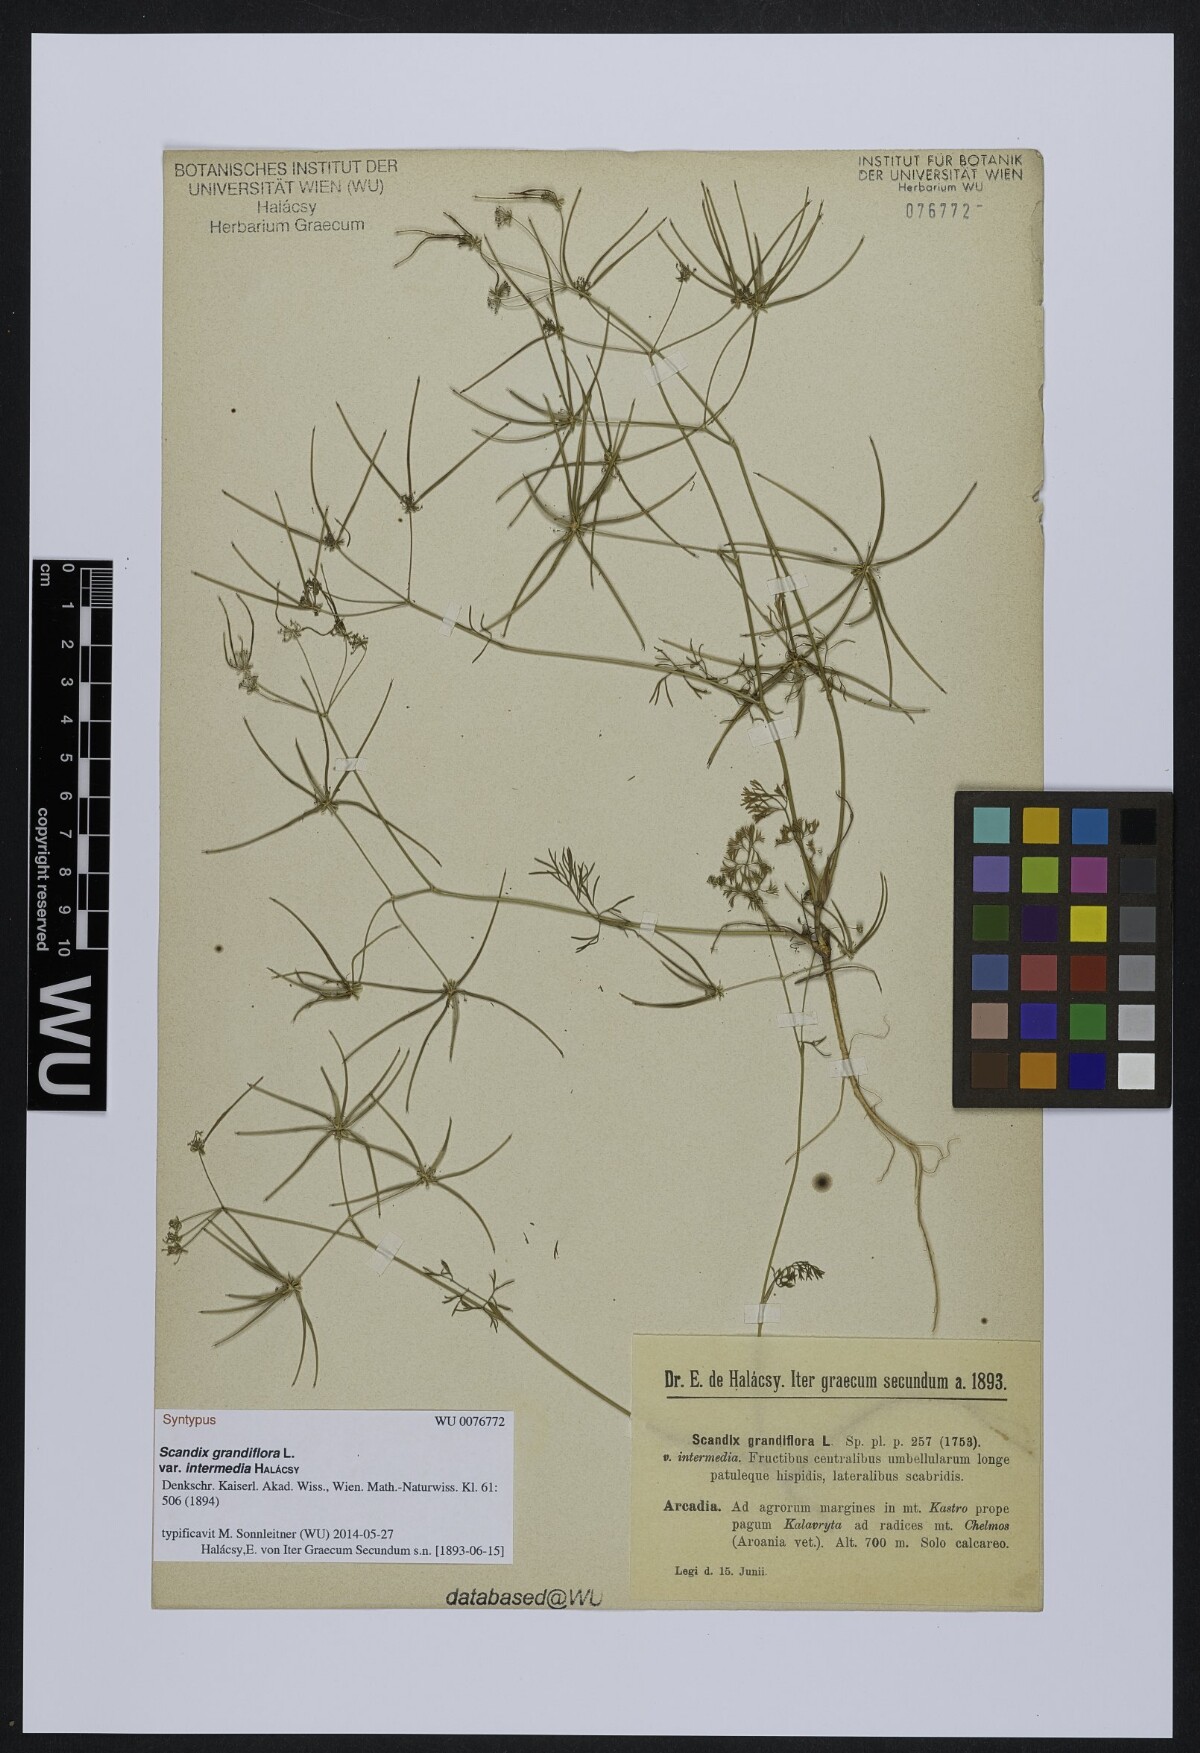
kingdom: Plantae
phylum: Tracheophyta
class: Magnoliopsida
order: Apiales
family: Apiaceae
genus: Scandix
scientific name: Scandix australis
